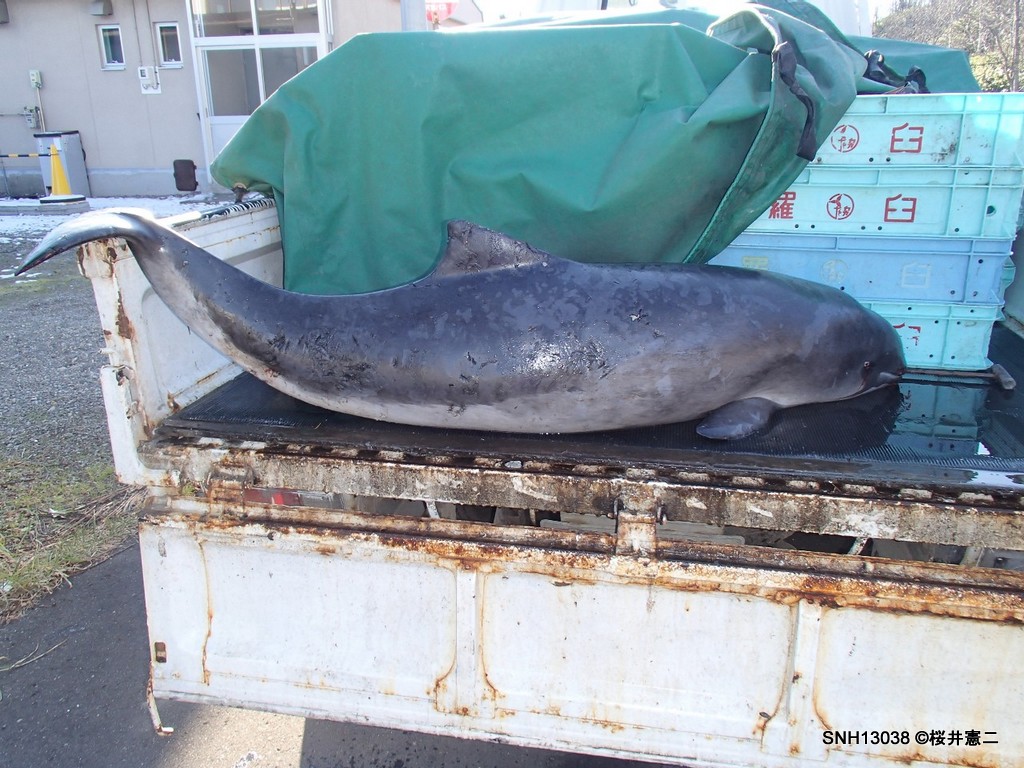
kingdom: Animalia
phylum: Chordata
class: Mammalia
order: Cetacea
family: Phocoenidae
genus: Phocoena
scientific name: Phocoena phocoena
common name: Harbour porpoise
